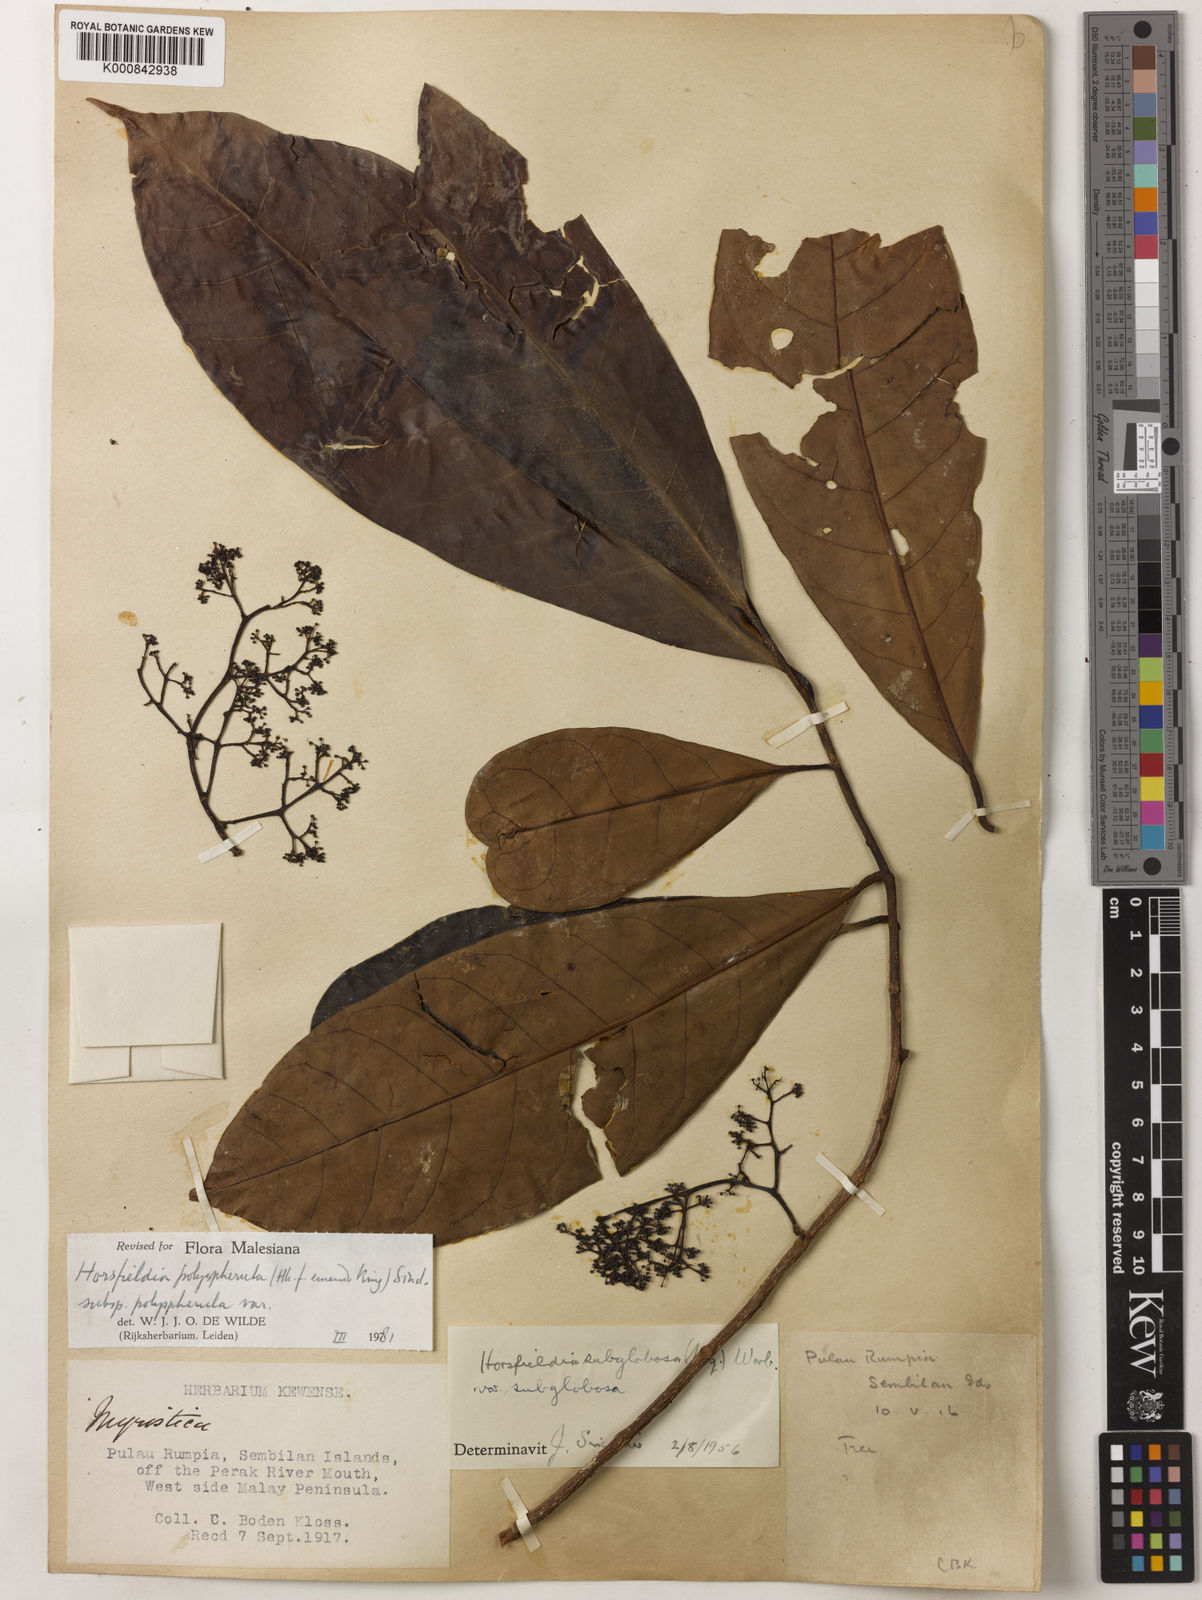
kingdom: Plantae
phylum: Tracheophyta
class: Magnoliopsida
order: Magnoliales
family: Myristicaceae
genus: Horsfieldia
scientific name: Horsfieldia
